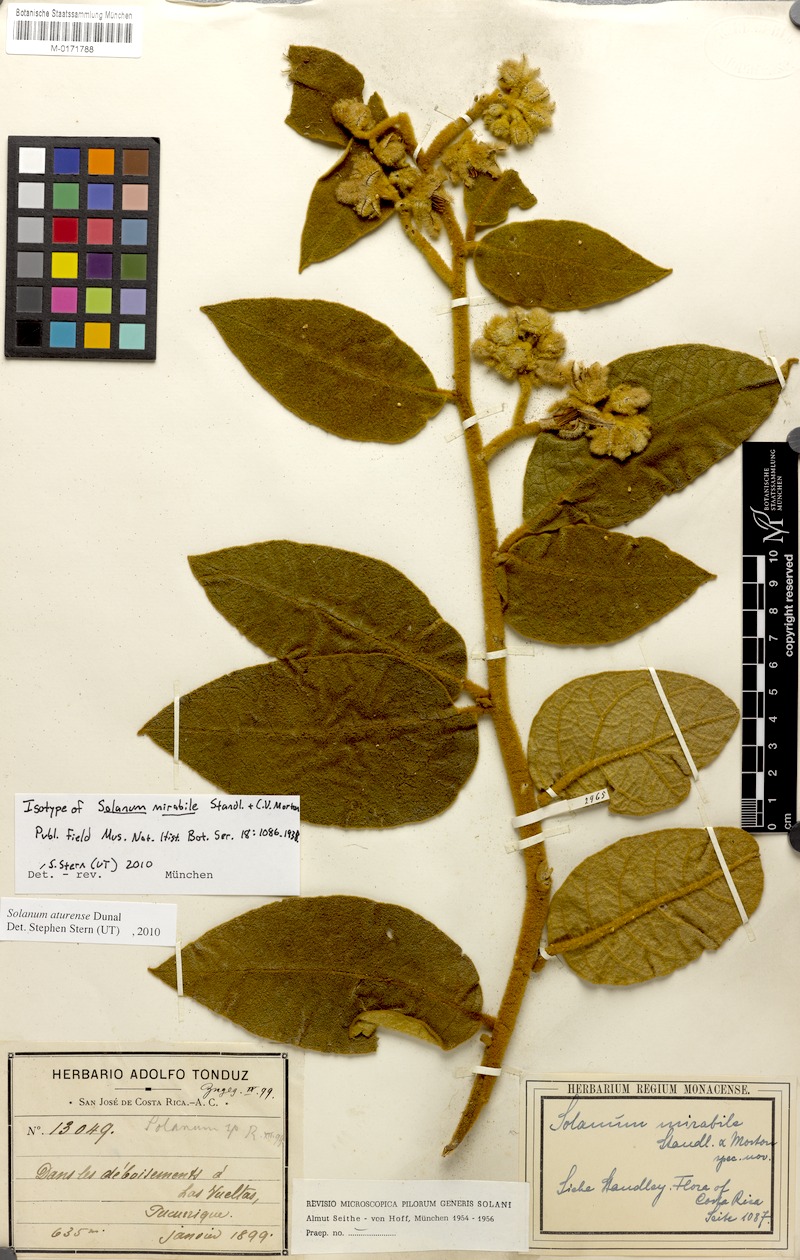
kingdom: Plantae
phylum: Tracheophyta
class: Magnoliopsida
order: Solanales
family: Solanaceae
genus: Solanum
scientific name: Solanum aturense
